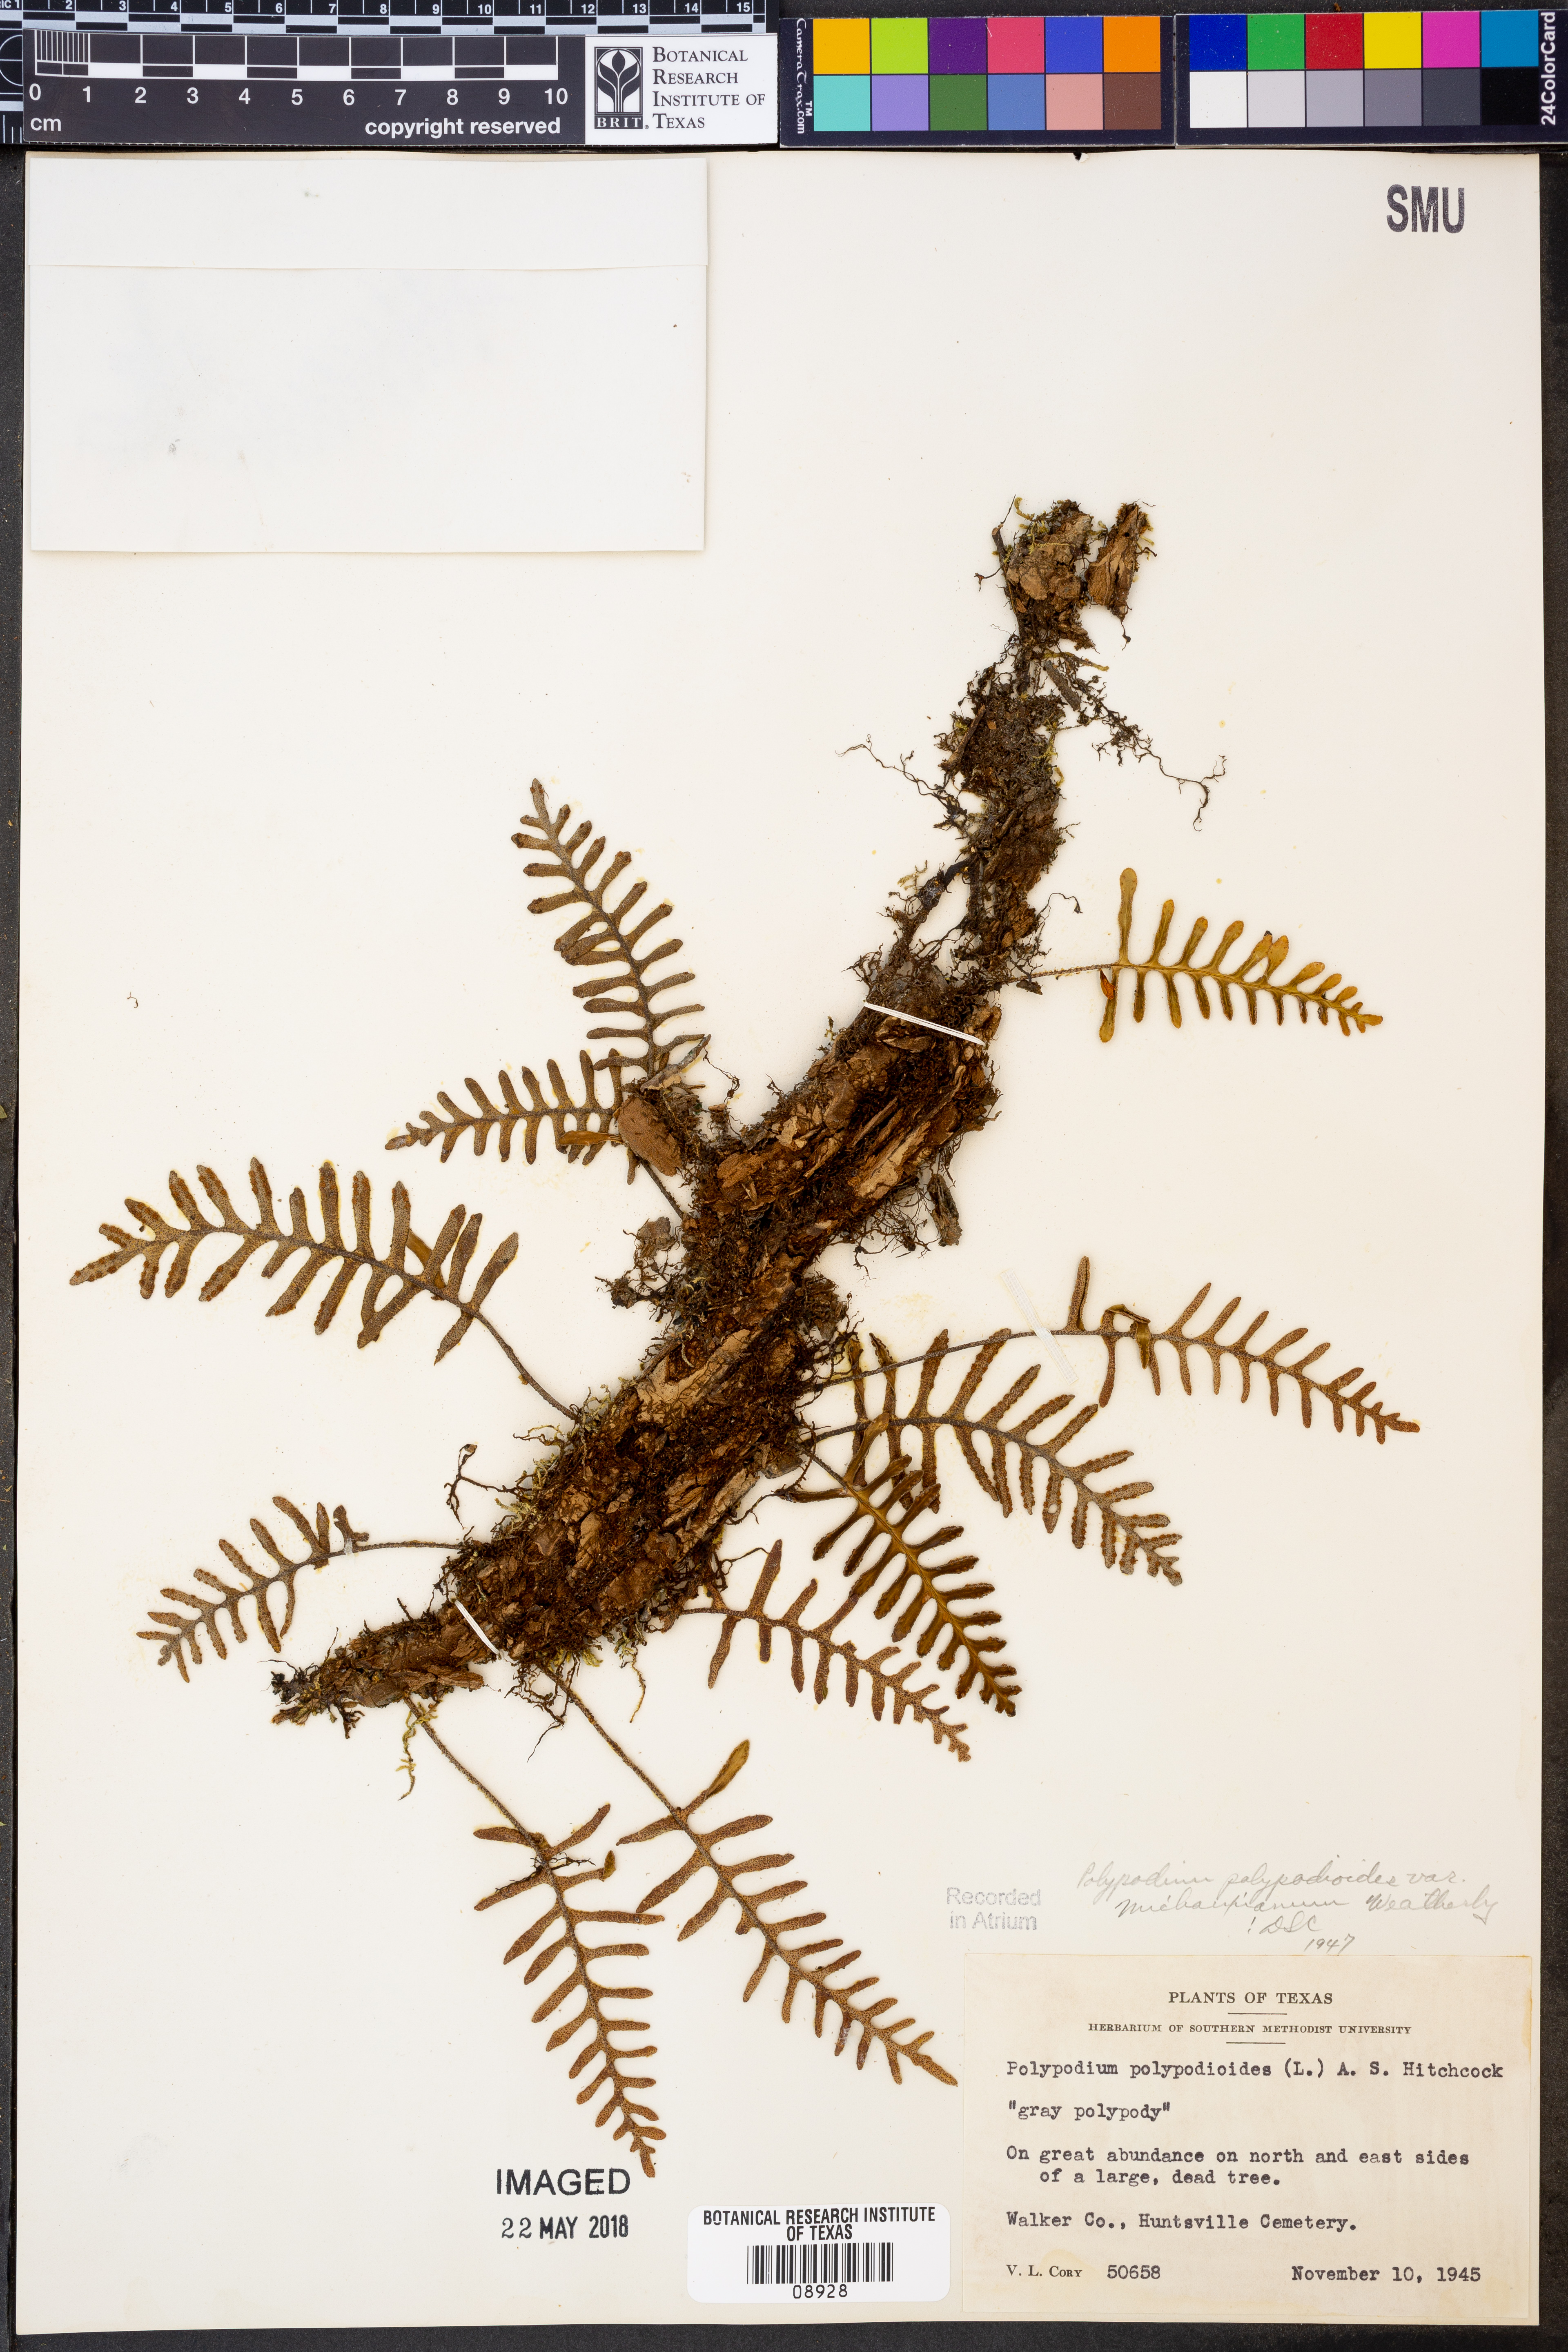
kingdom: Plantae
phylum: Tracheophyta
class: Polypodiopsida
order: Polypodiales
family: Polypodiaceae
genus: Pleopeltis
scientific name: Pleopeltis michauxiana
